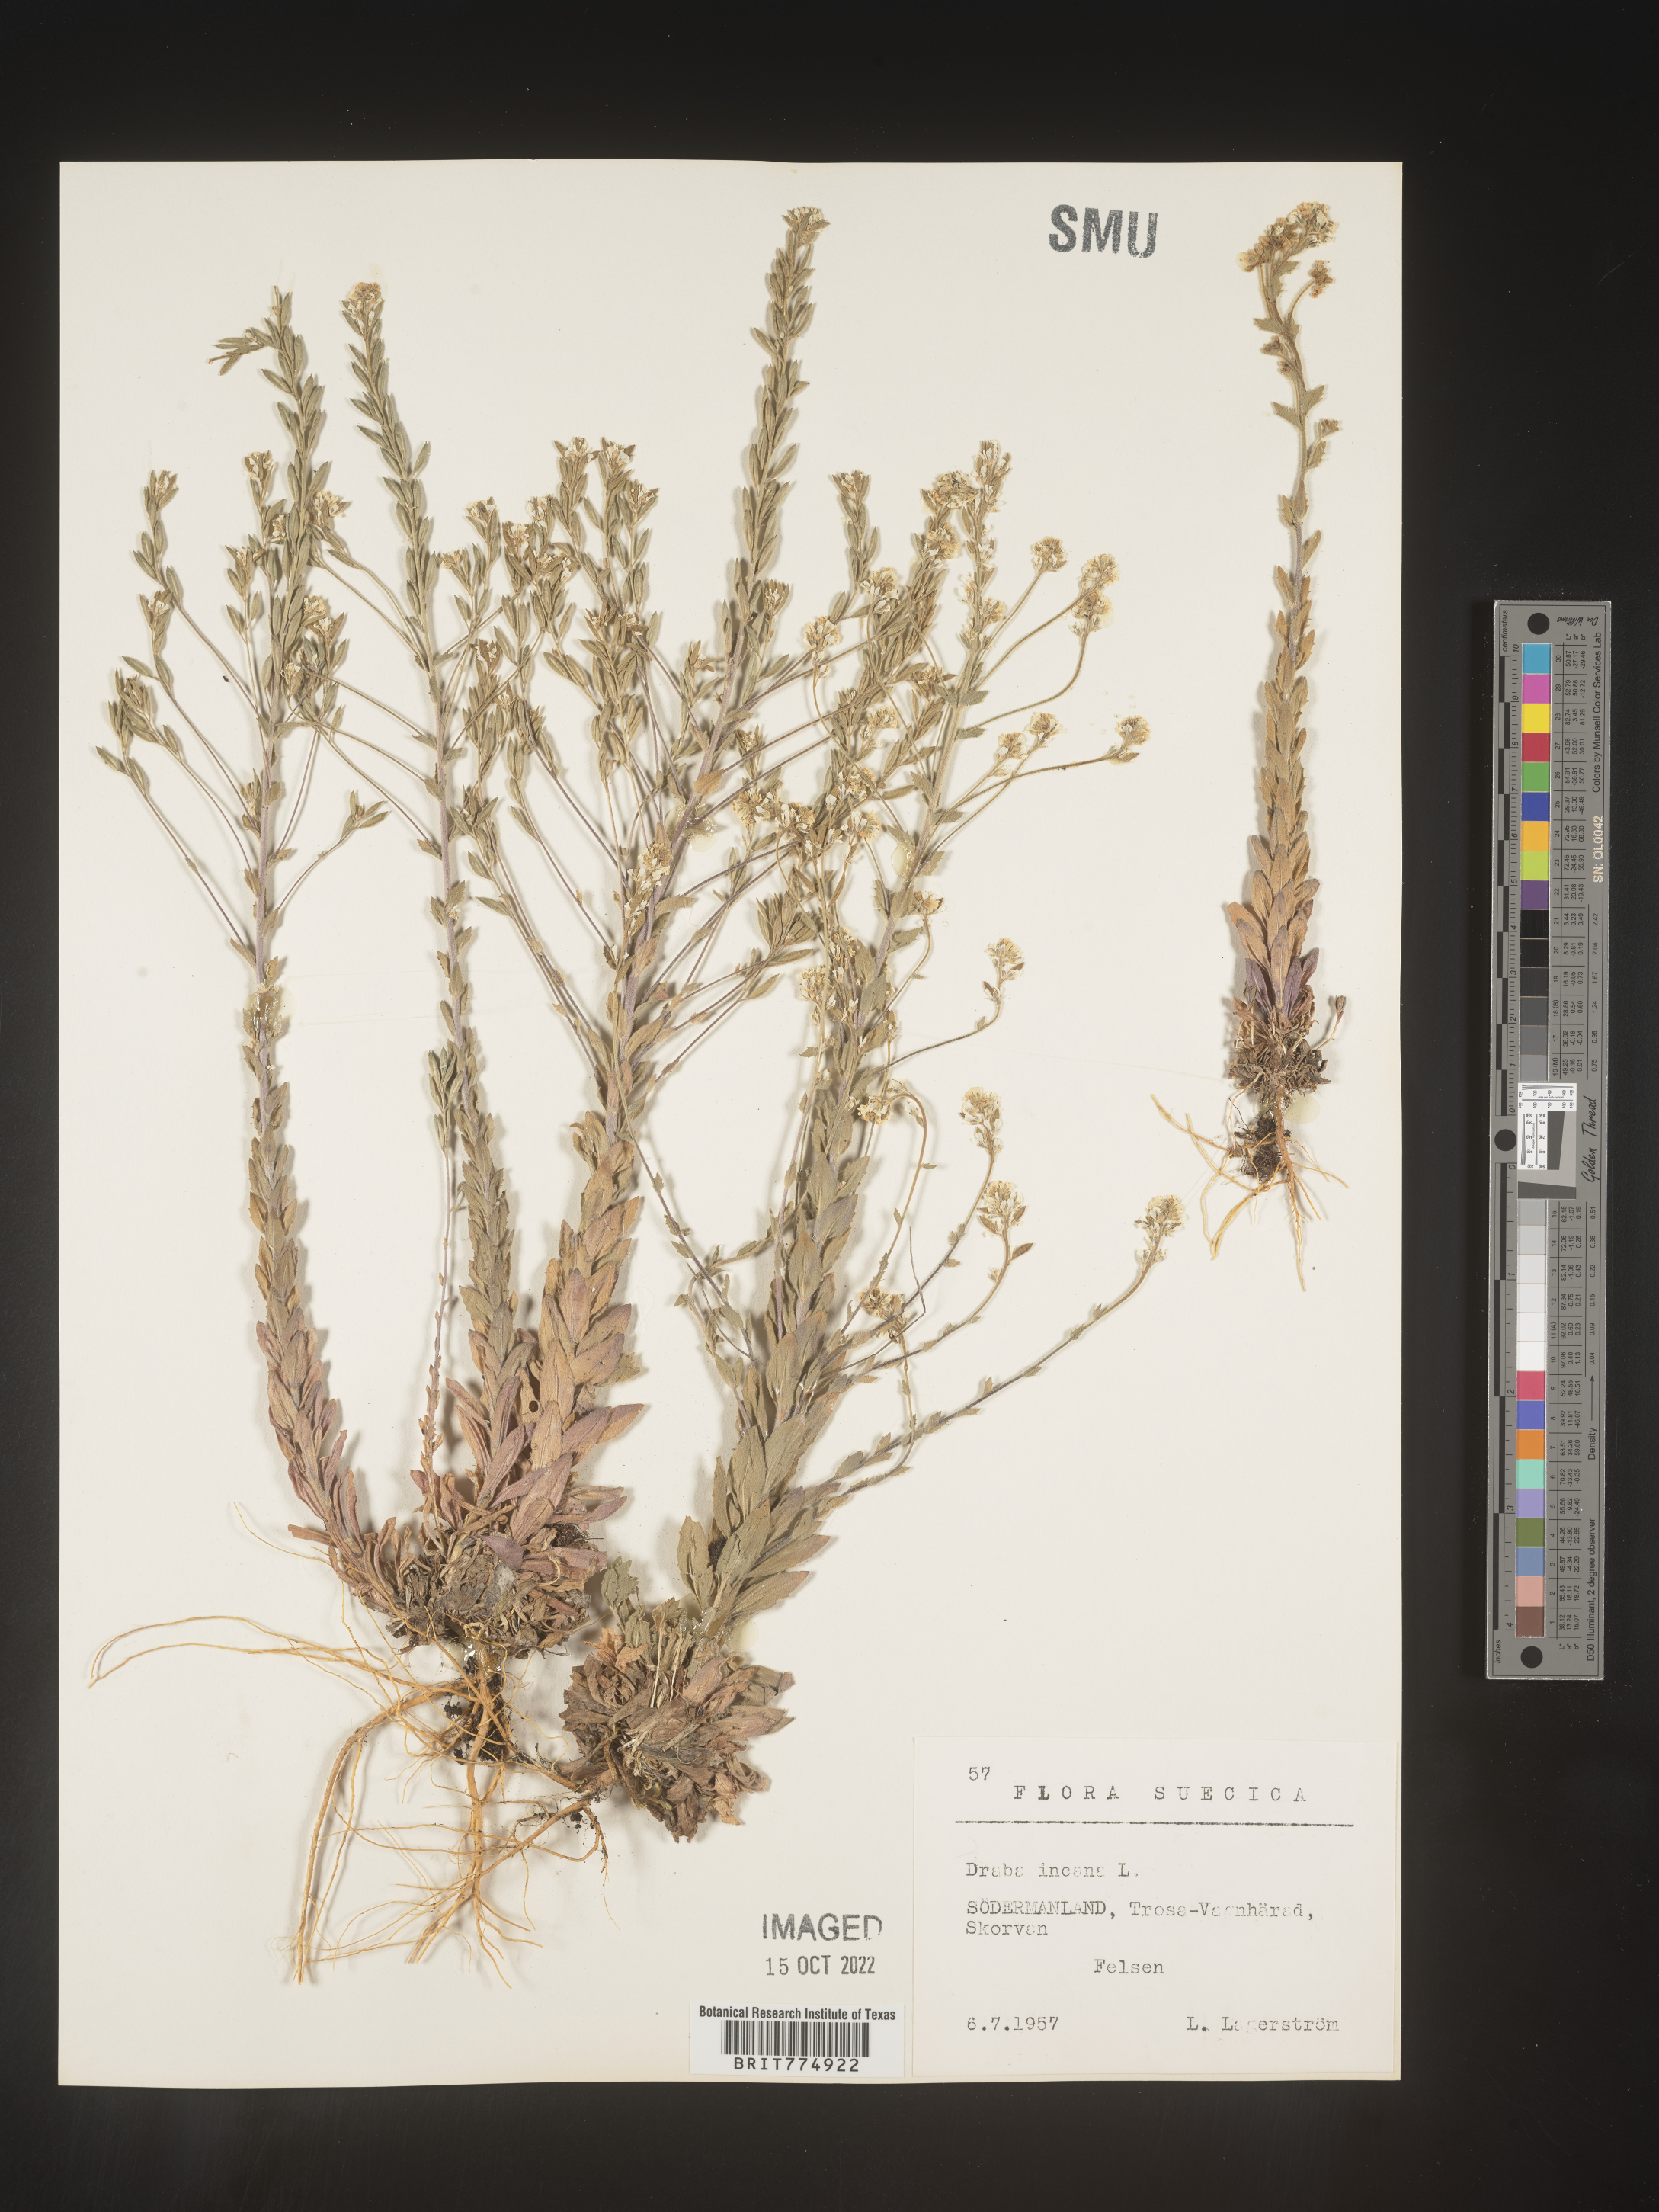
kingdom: Plantae
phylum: Tracheophyta
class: Magnoliopsida
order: Brassicales
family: Brassicaceae
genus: Draba
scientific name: Draba
